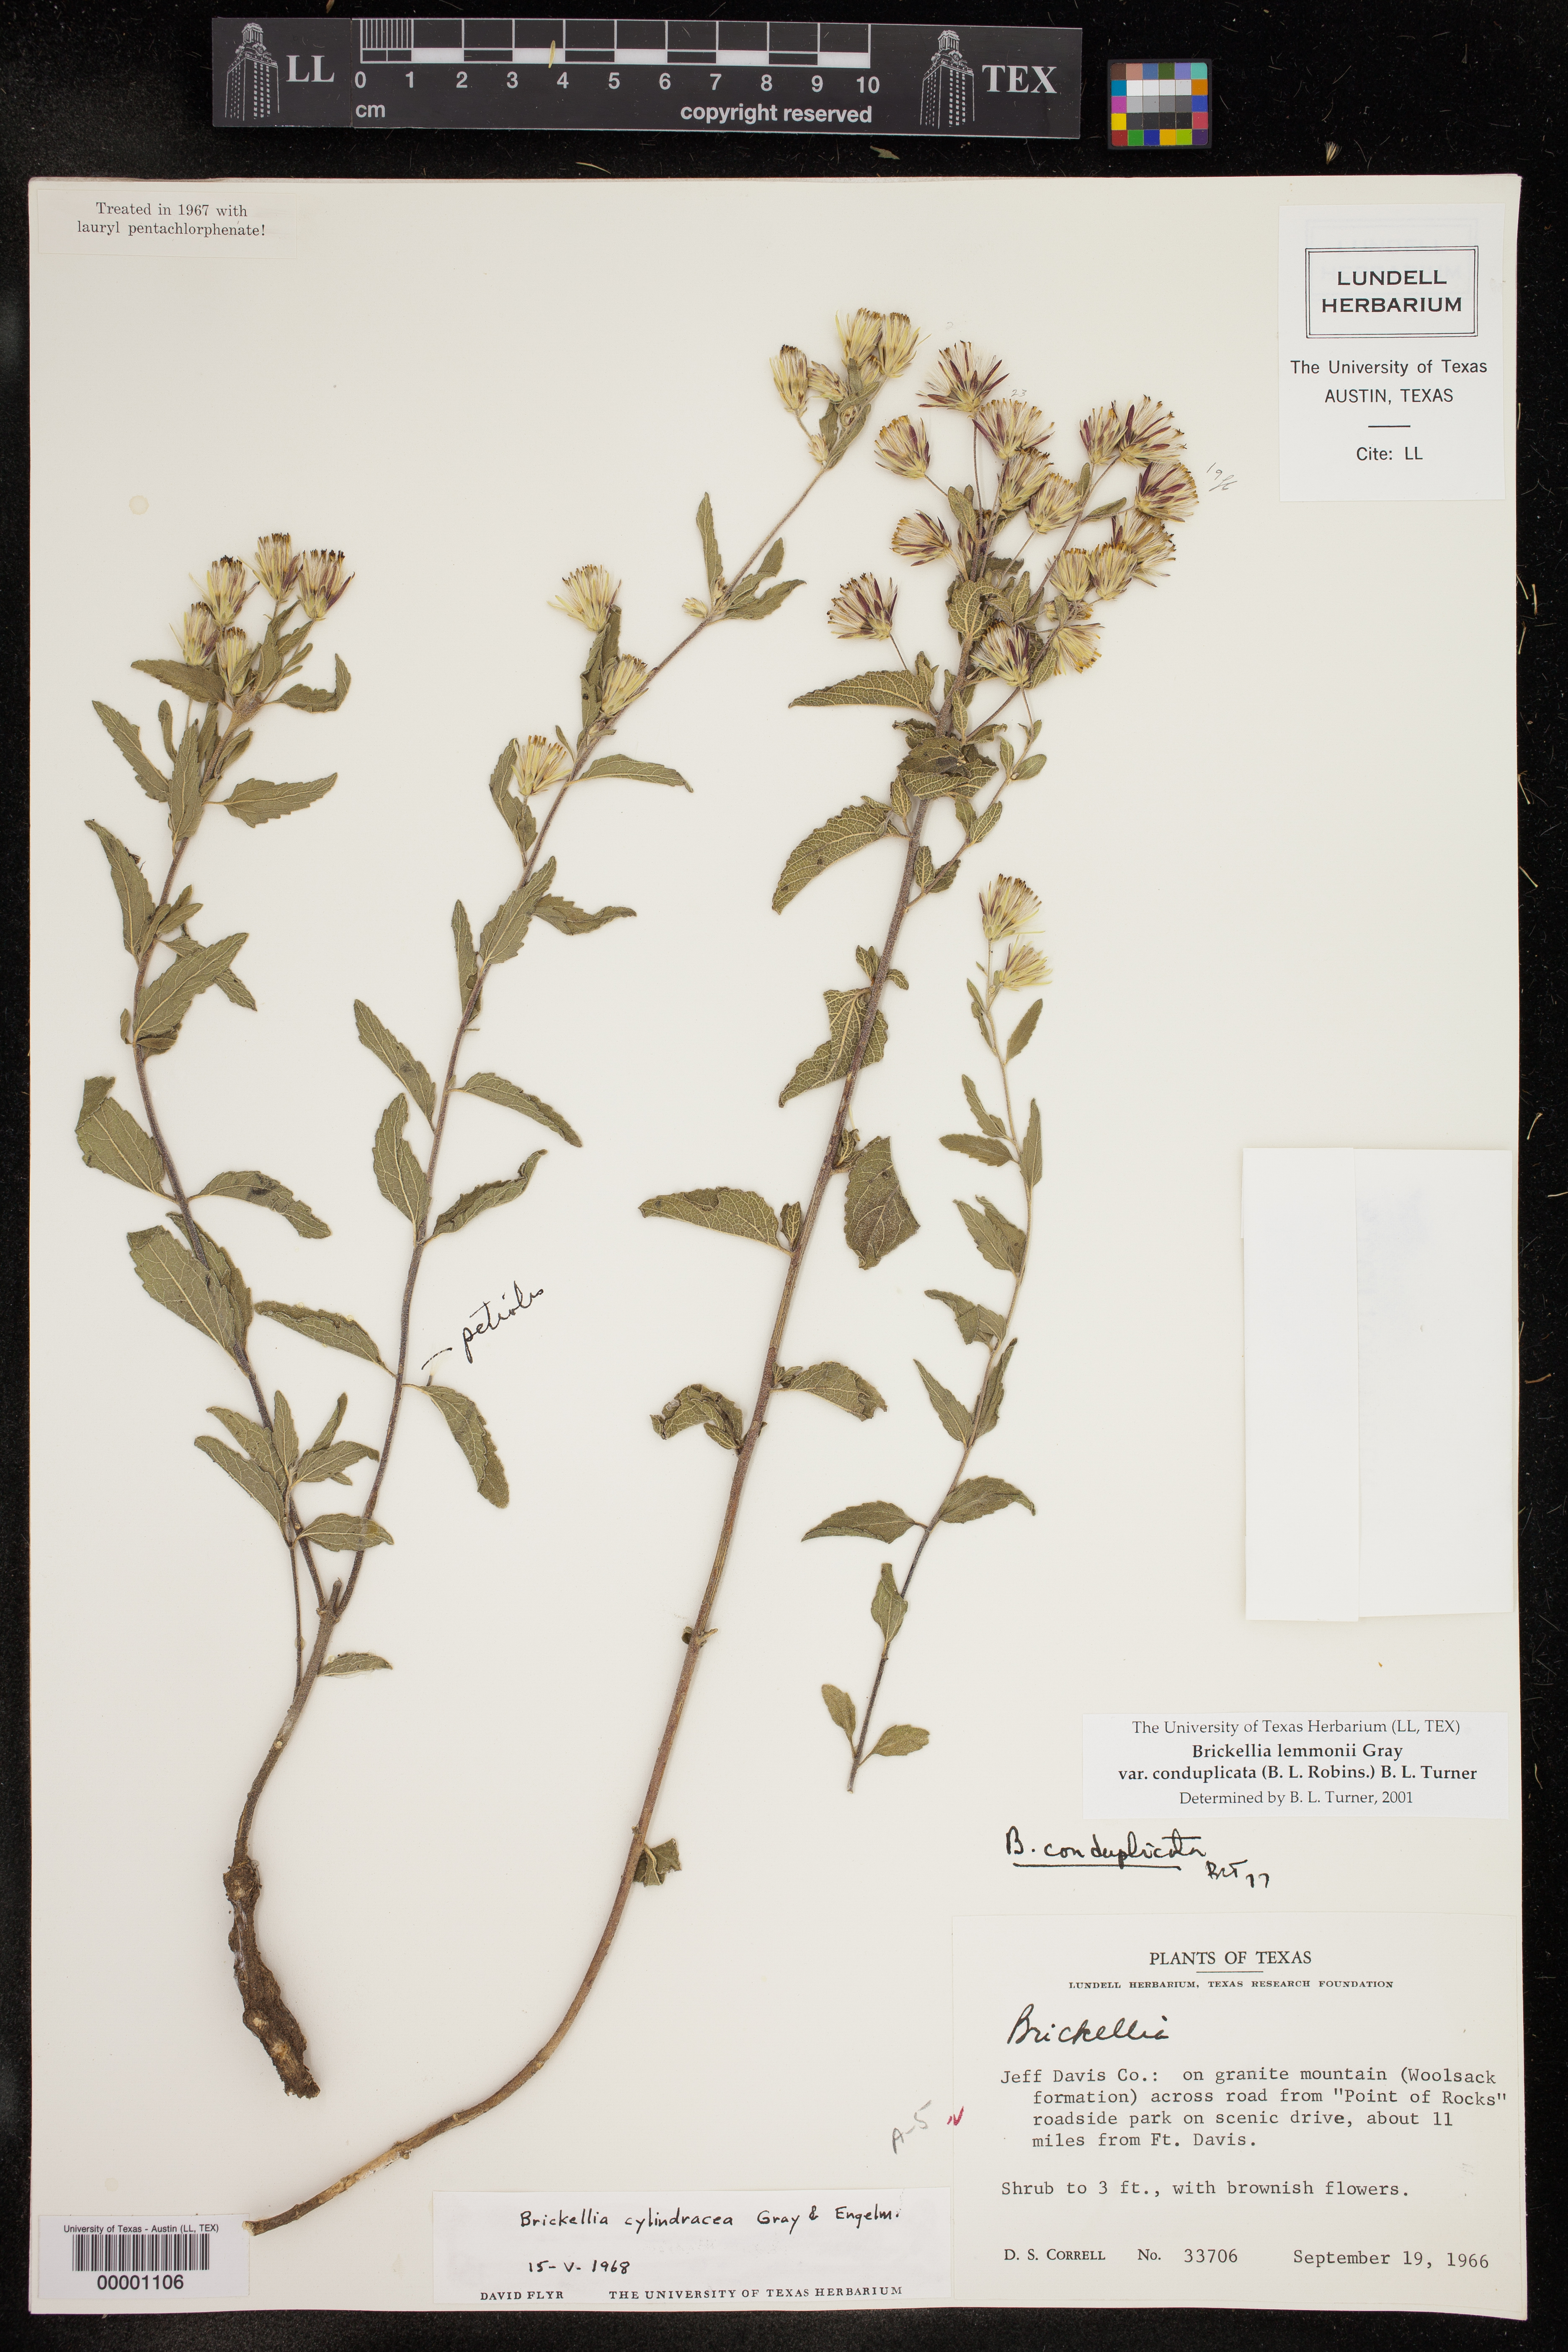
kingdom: Plantae
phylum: Tracheophyta
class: Magnoliopsida
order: Asterales
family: Asteraceae
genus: Brickellia
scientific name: Brickellia lemmonii
